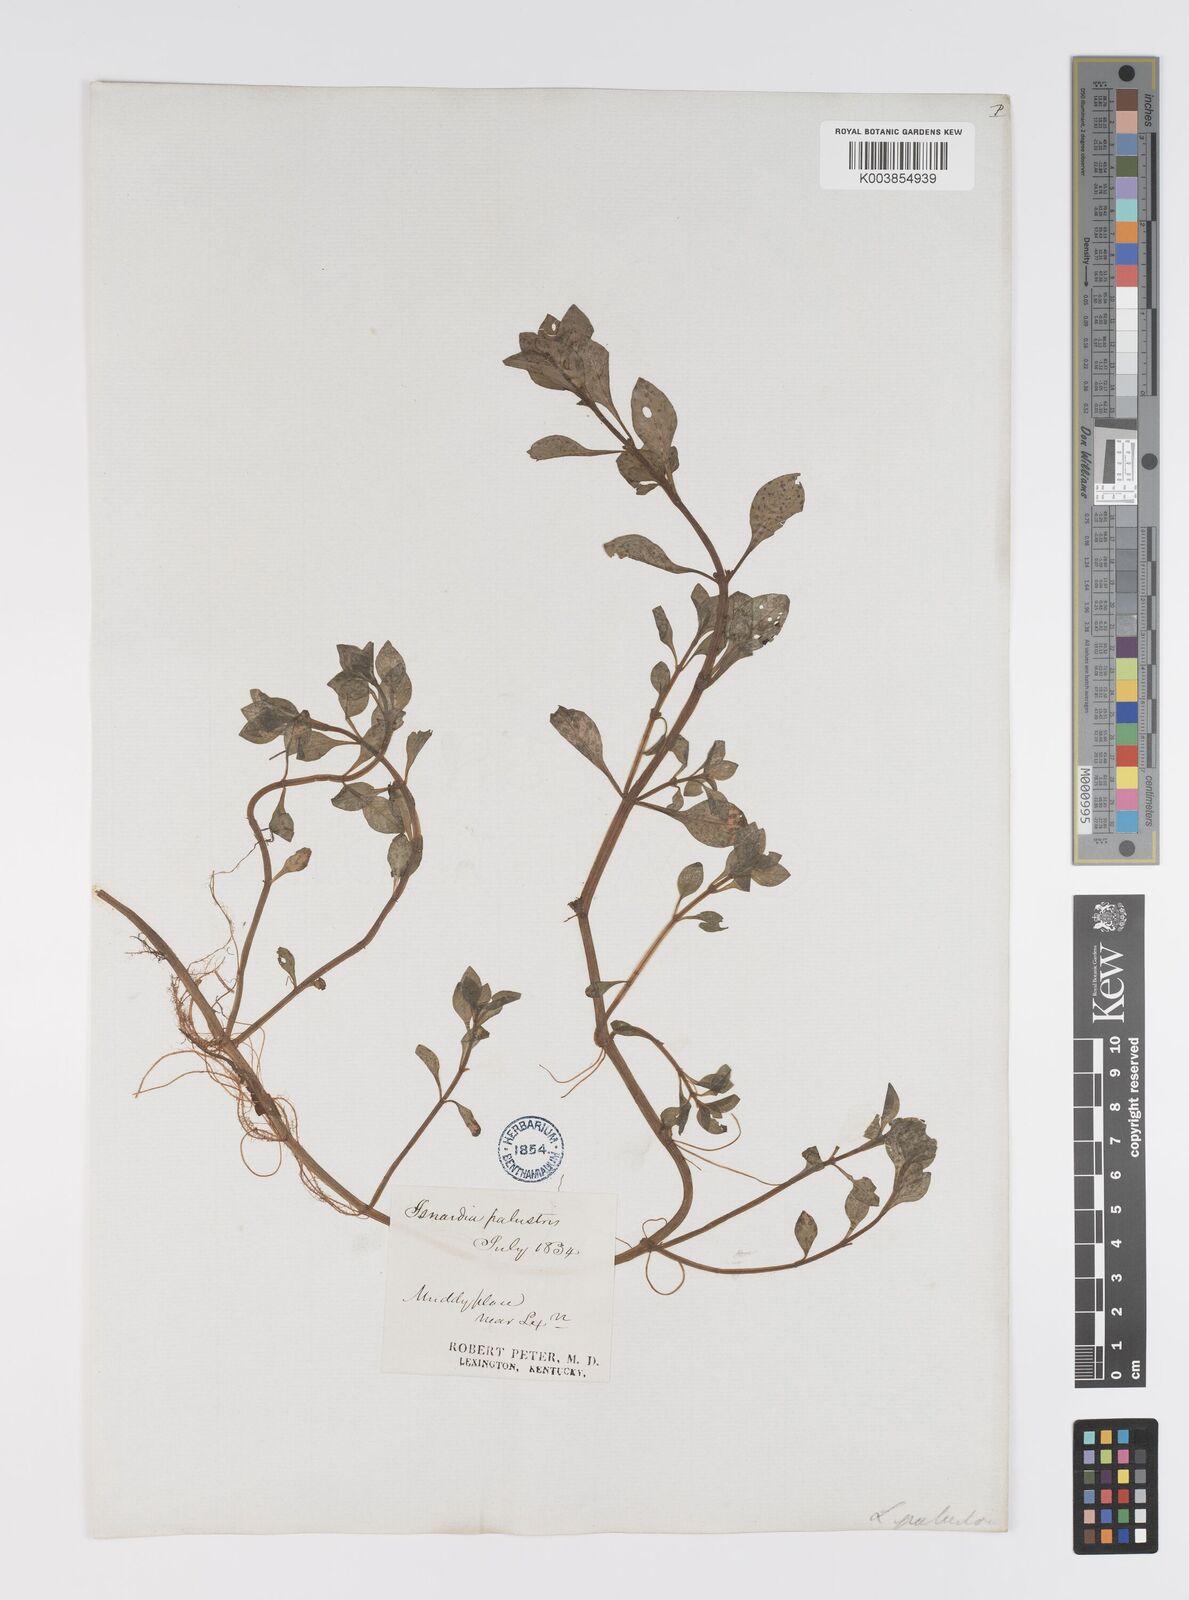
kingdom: Plantae
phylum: Tracheophyta
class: Magnoliopsida
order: Myrtales
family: Onagraceae
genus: Ludwigia
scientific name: Ludwigia palustris
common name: Hampshire-purslane
